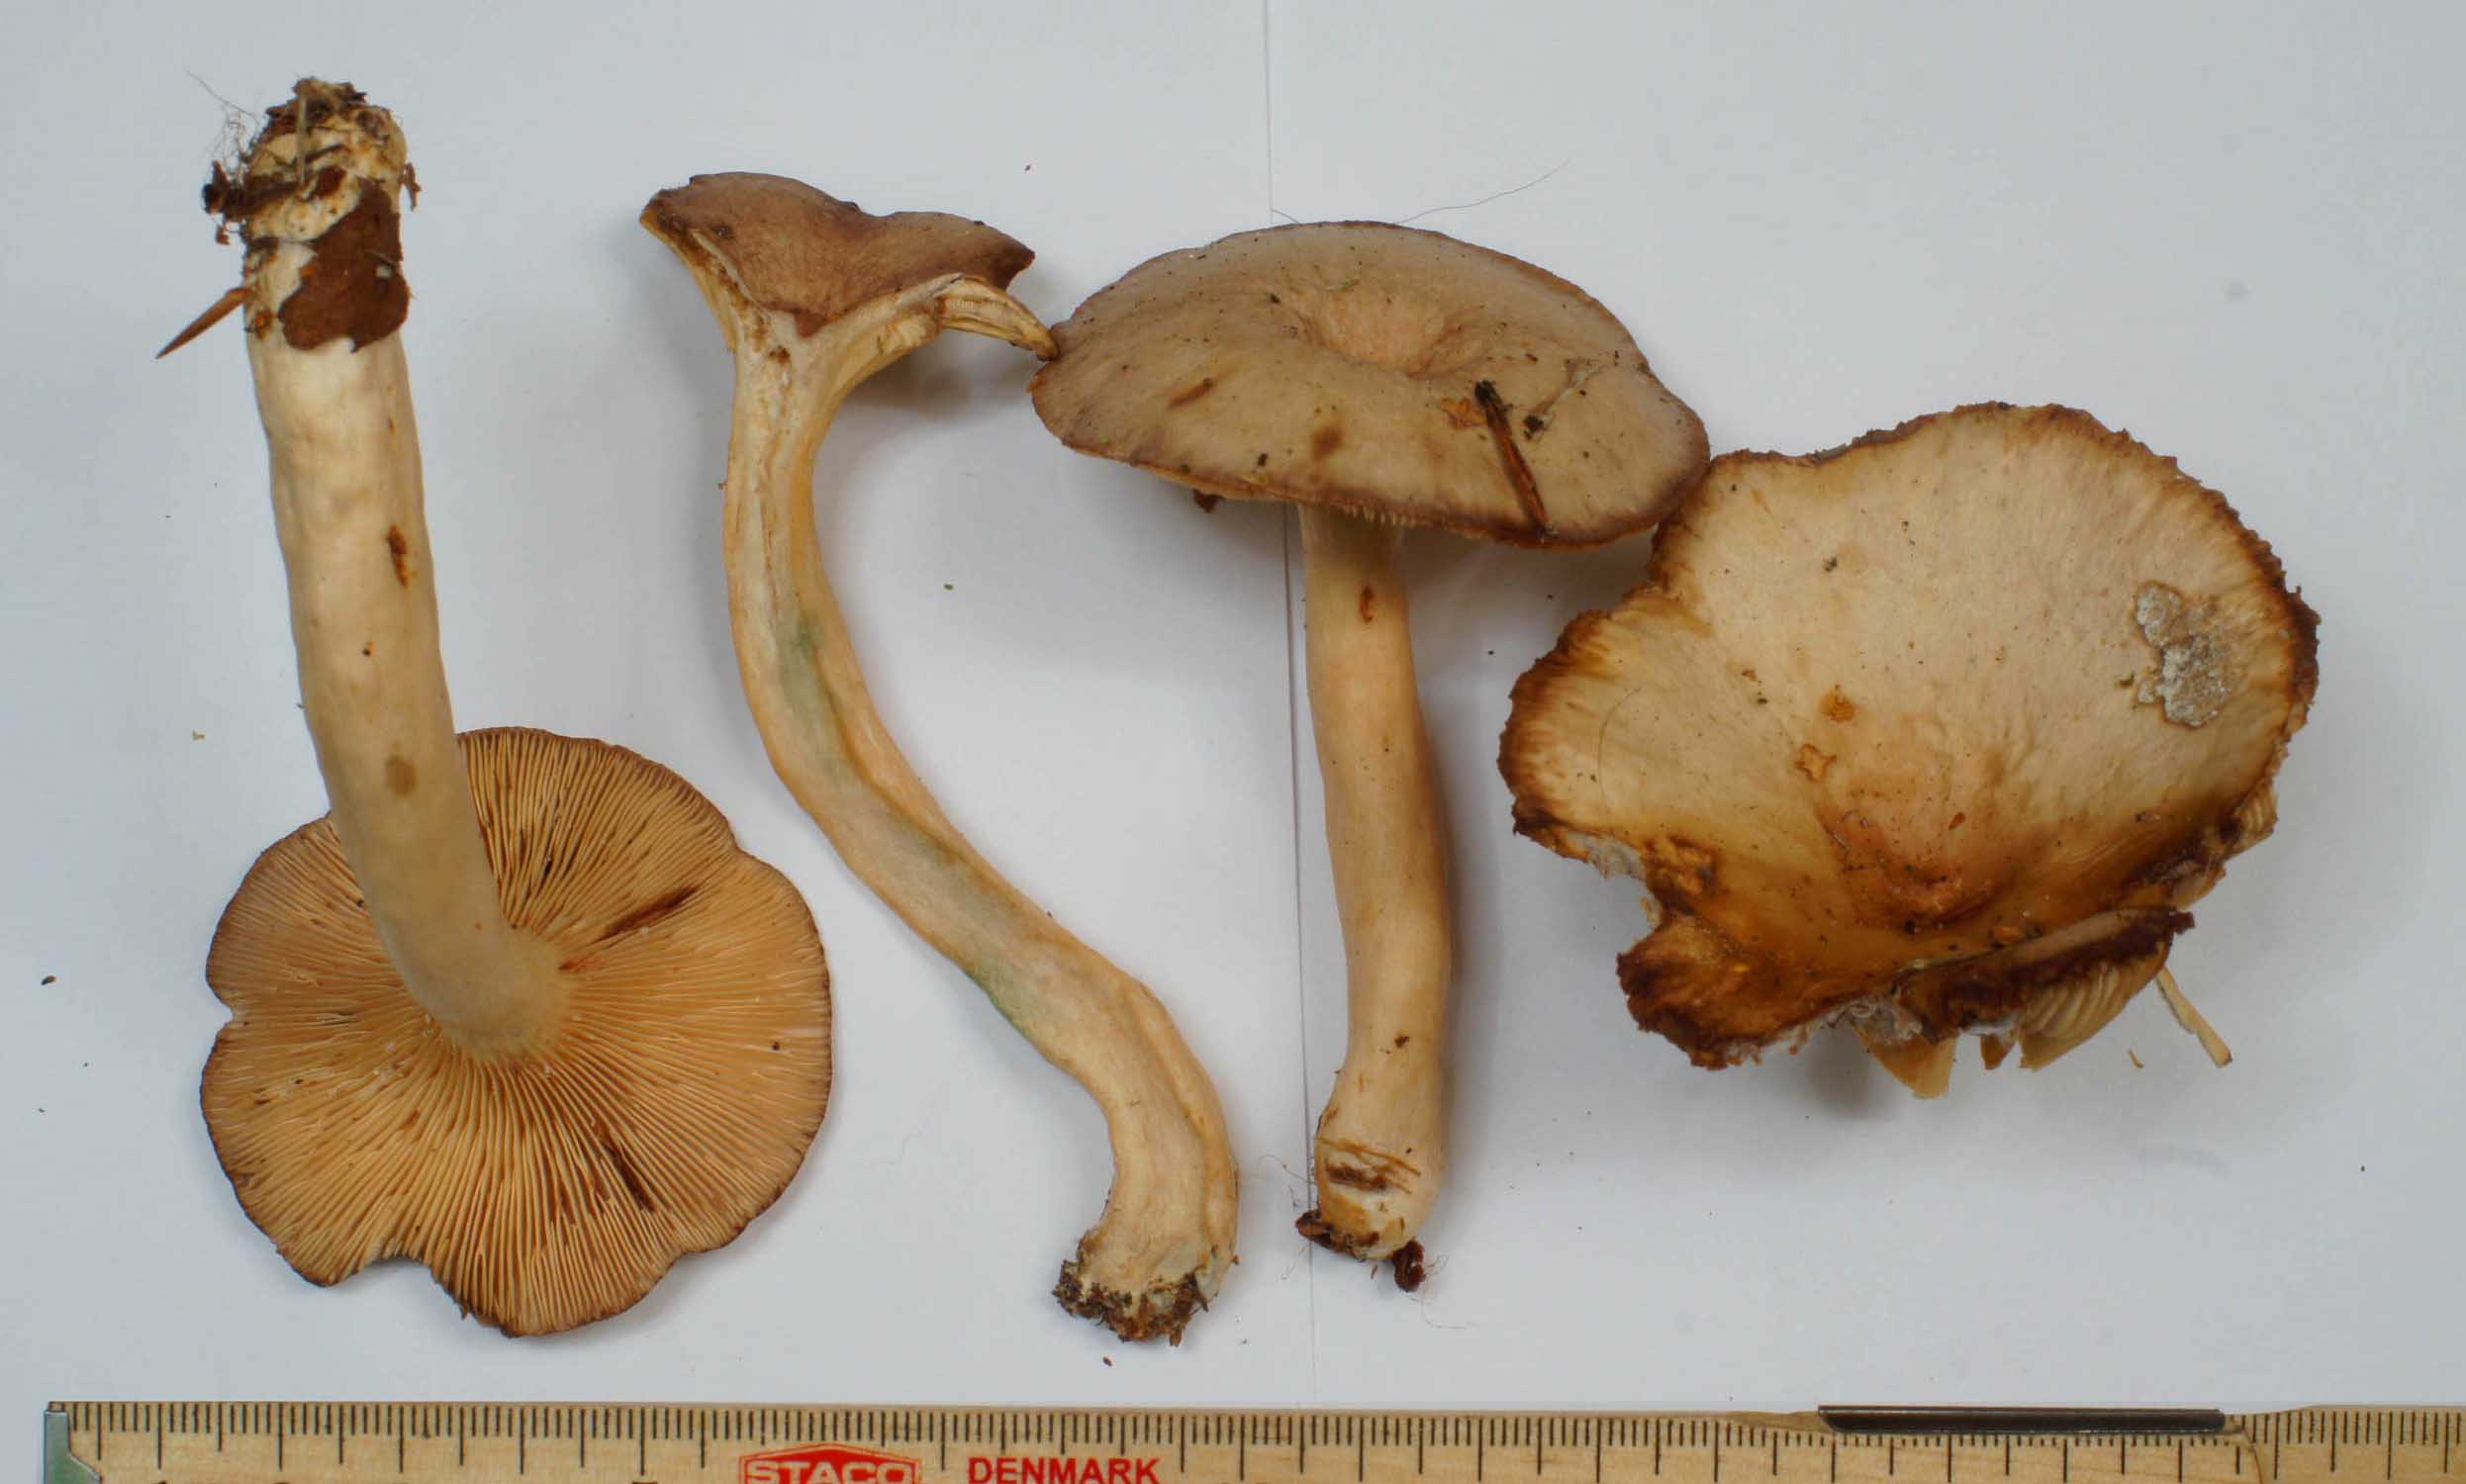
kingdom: Fungi
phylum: Basidiomycota
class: Agaricomycetes
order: Russulales
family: Russulaceae
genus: Lactarius
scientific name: Lactarius vietus
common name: violetgrå mælkehat
